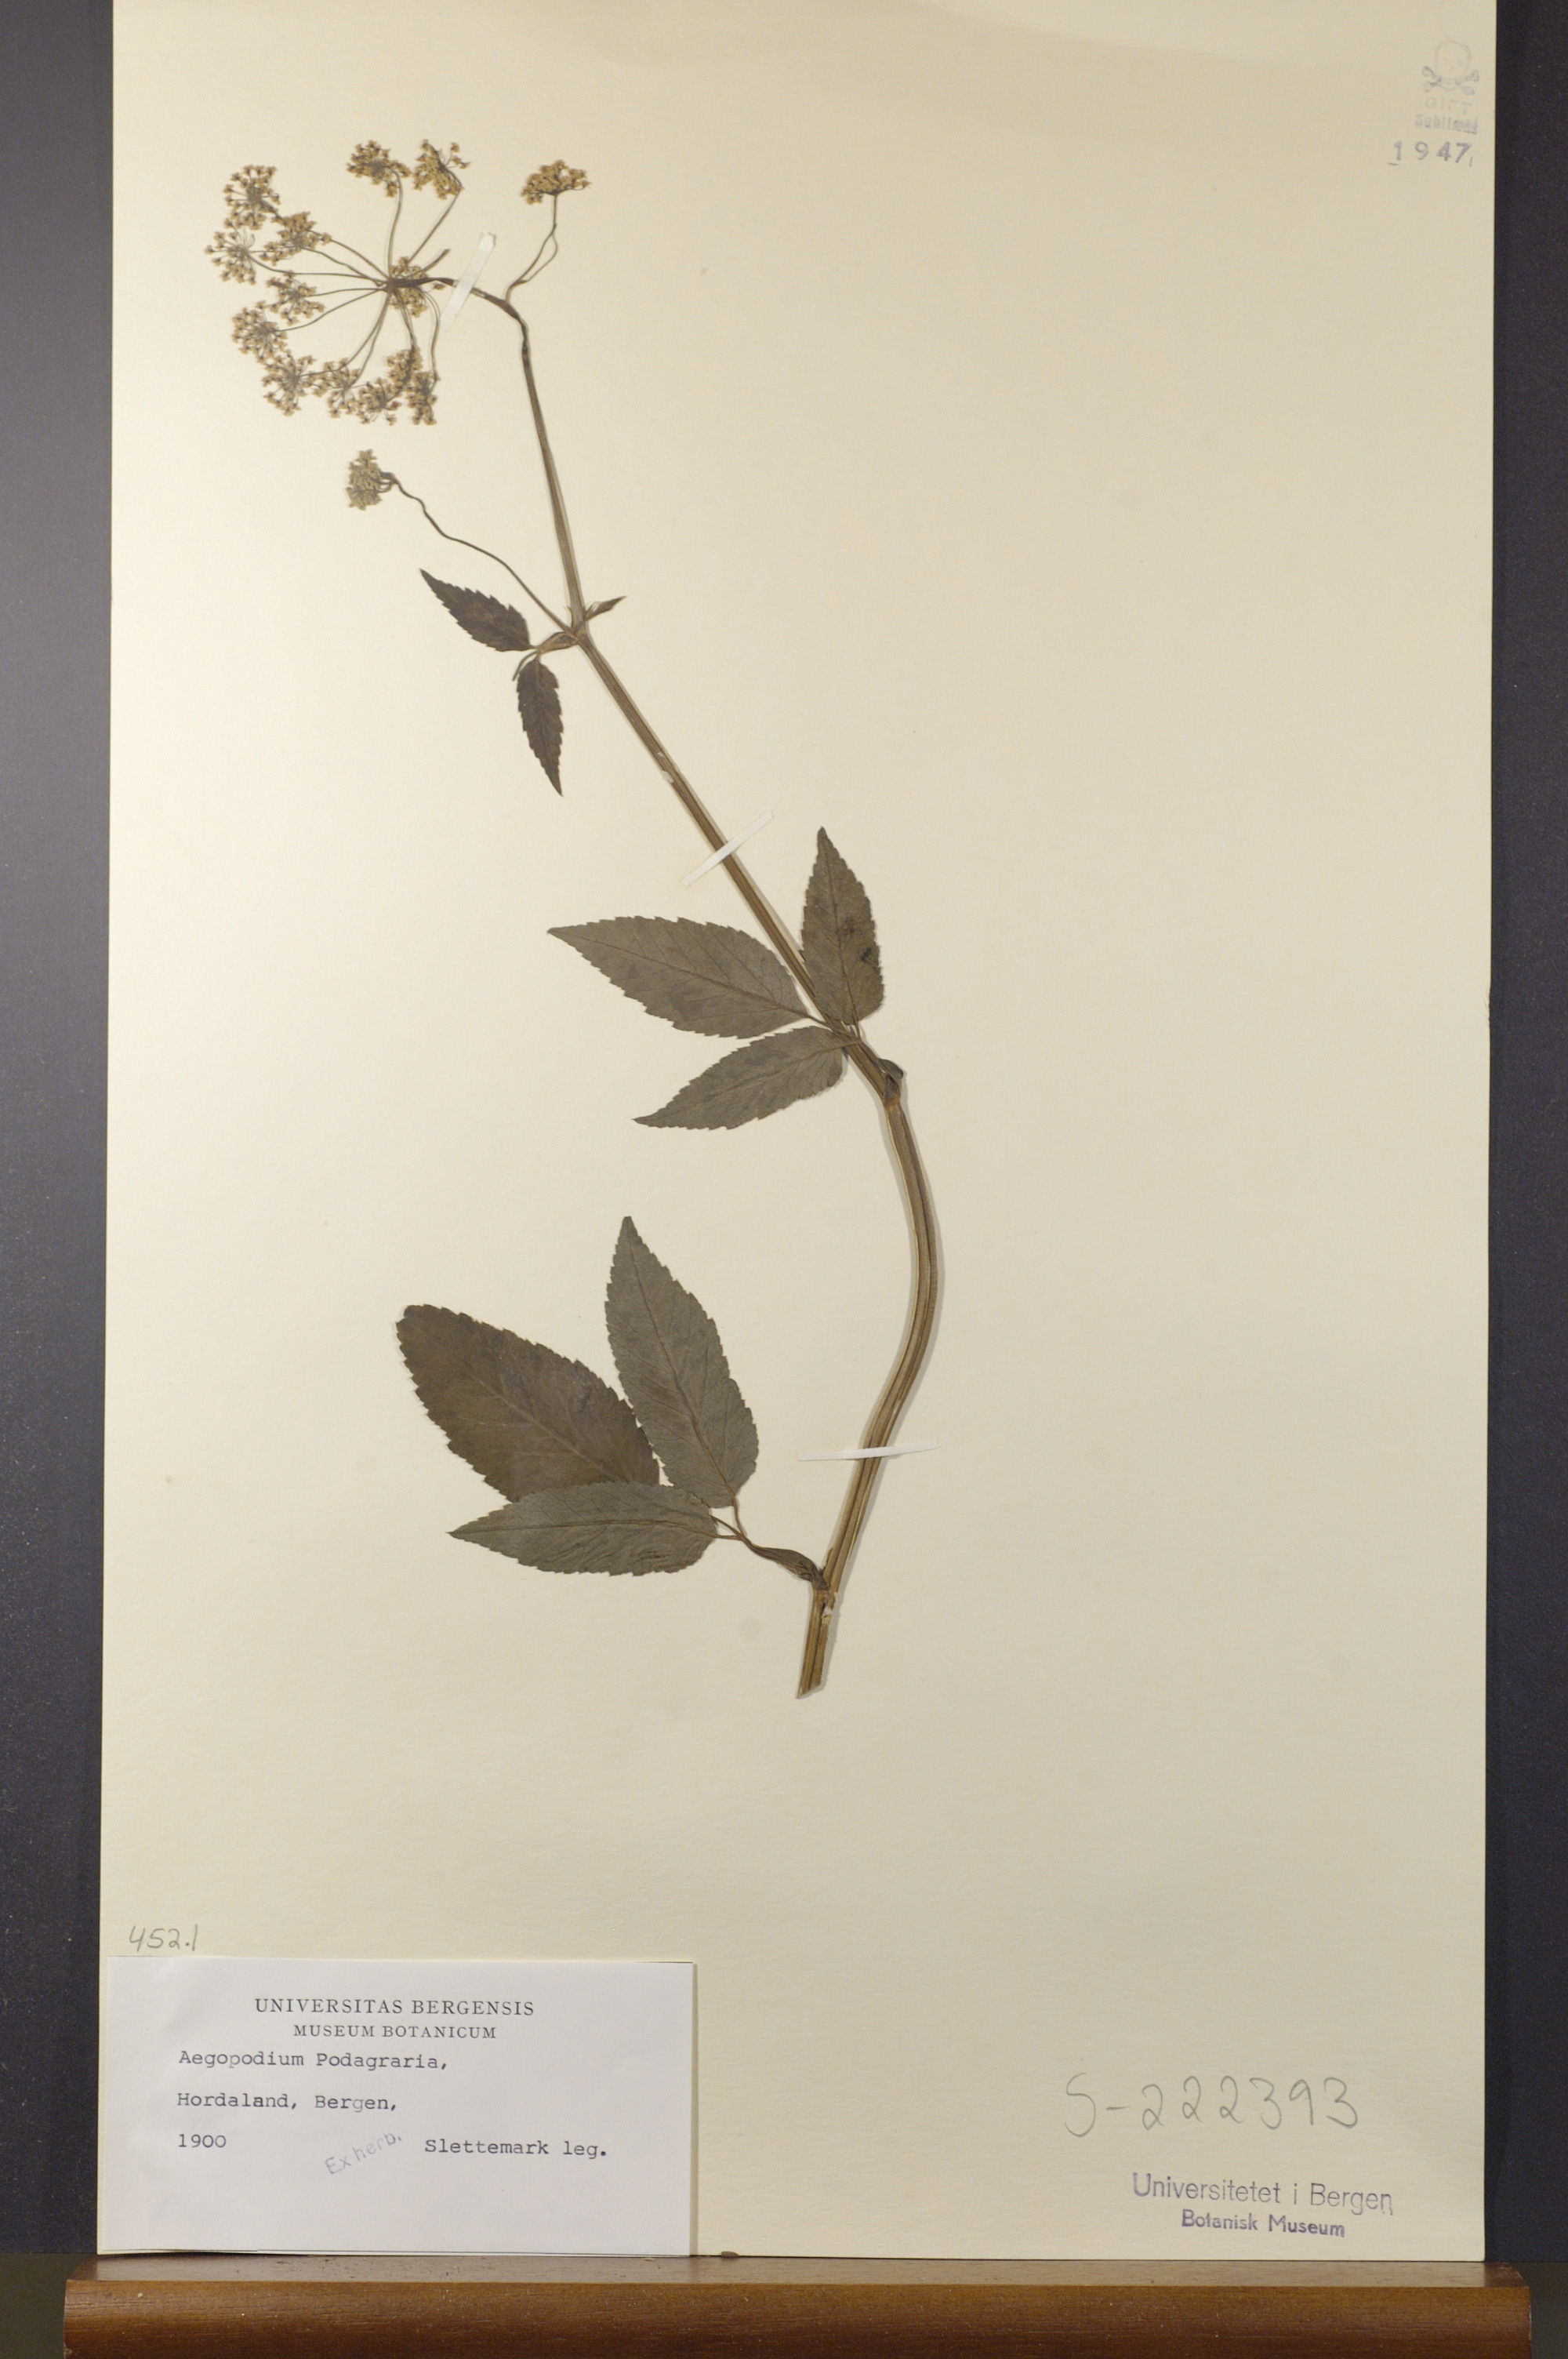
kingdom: Plantae
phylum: Tracheophyta
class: Magnoliopsida
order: Apiales
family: Apiaceae
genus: Aegopodium
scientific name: Aegopodium podagraria
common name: Ground-elder
